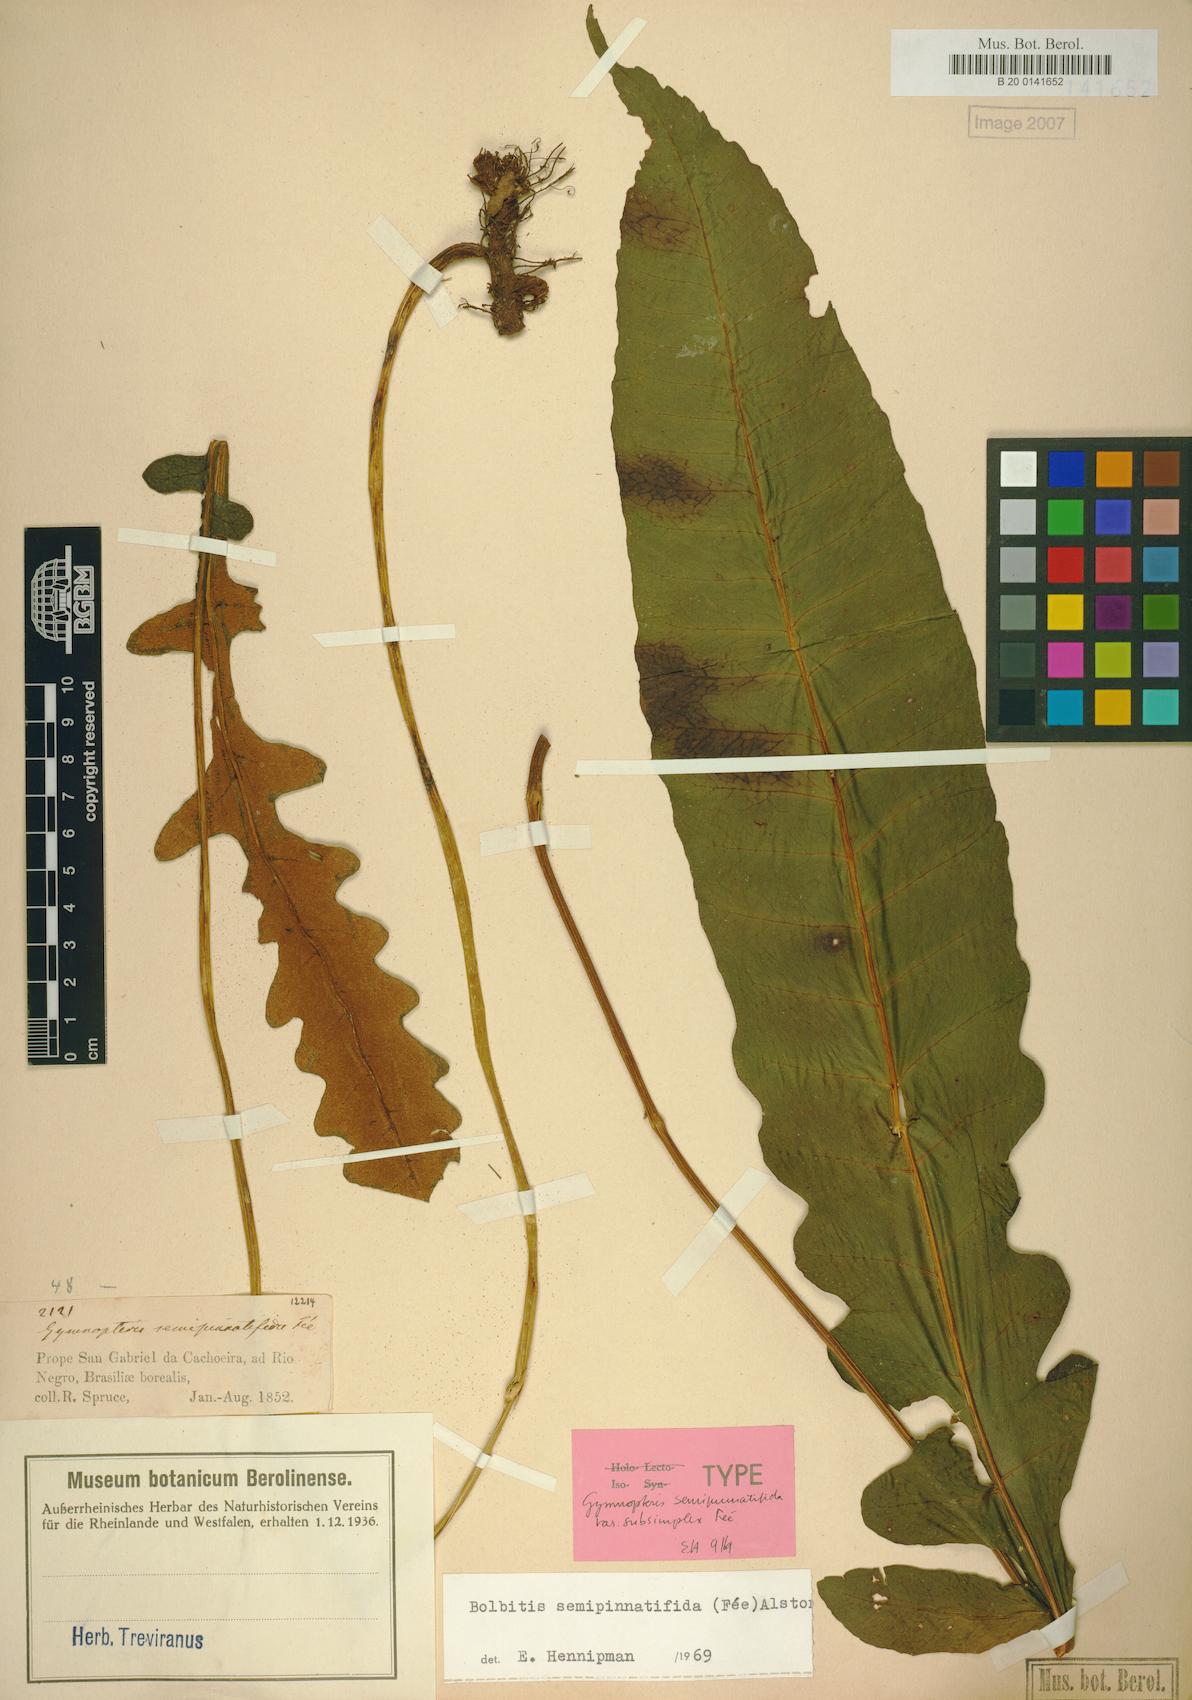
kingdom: Plantae
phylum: Tracheophyta
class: Polypodiopsida
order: Polypodiales
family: Dryopteridaceae
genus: Bolbitis
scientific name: Bolbitis semipinnatifida
